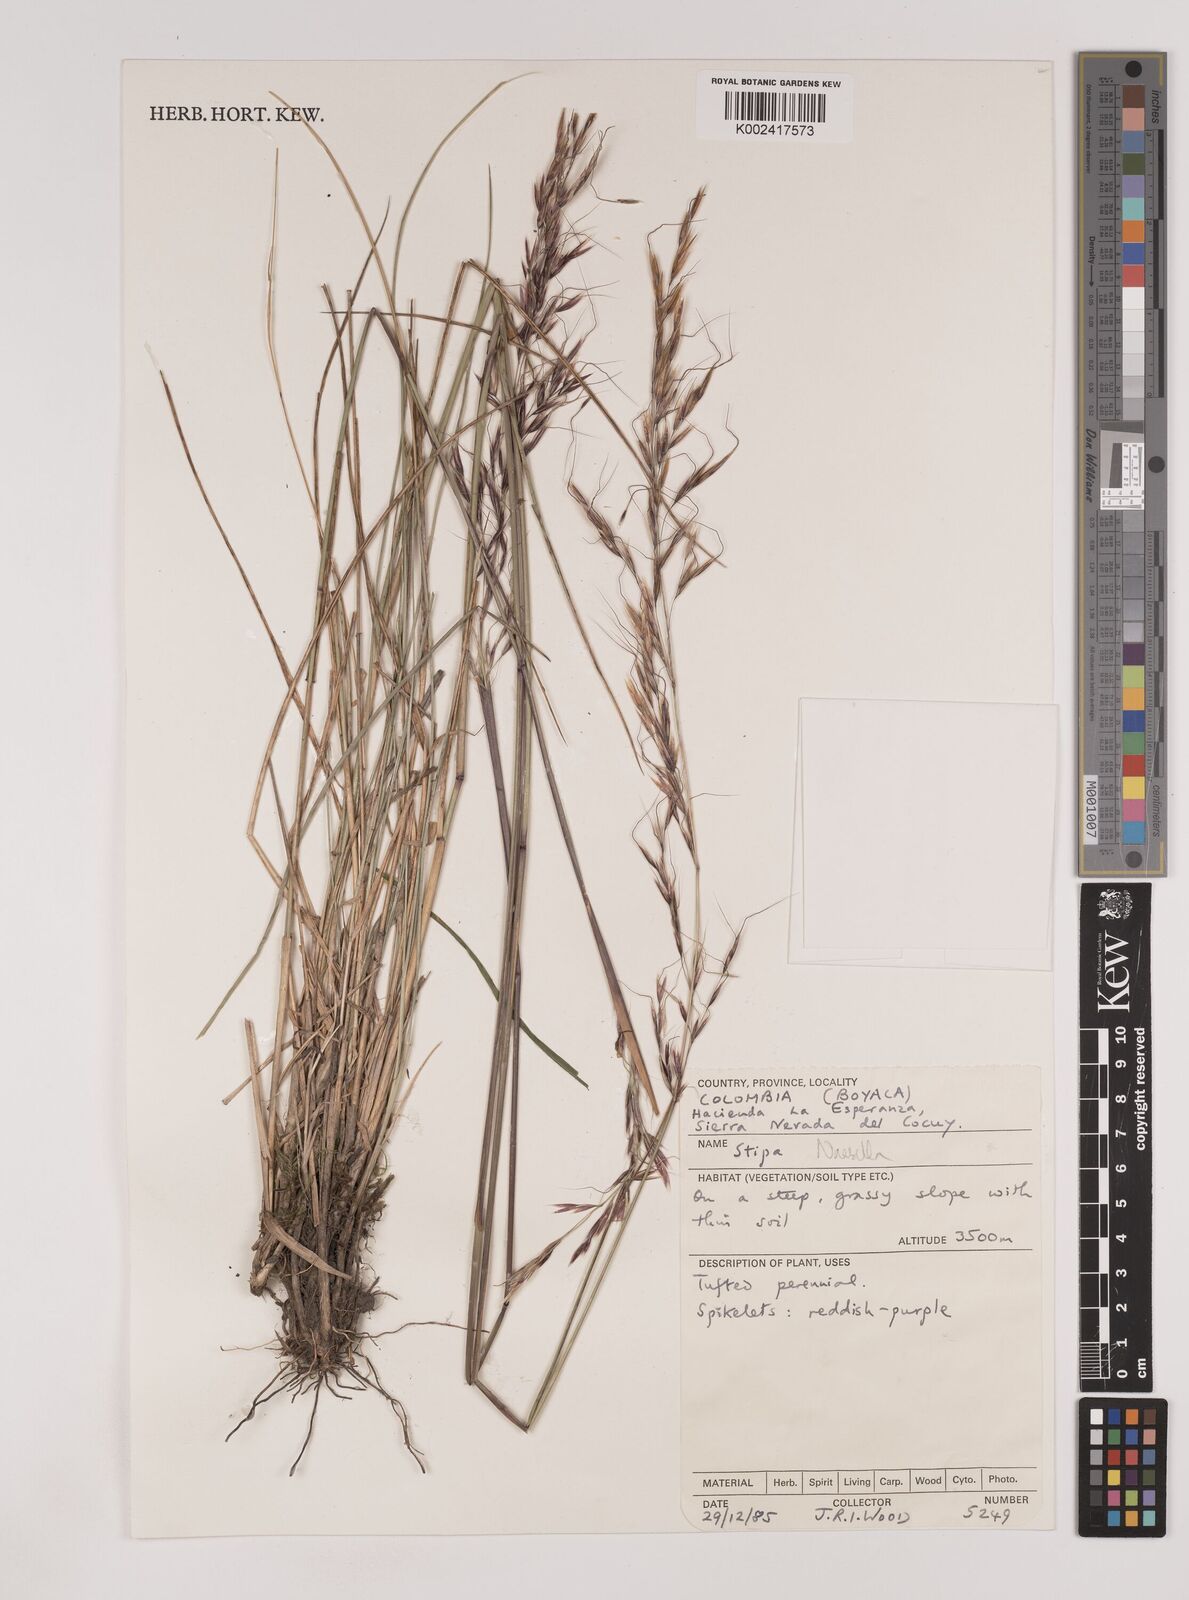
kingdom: Plantae
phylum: Tracheophyta
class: Liliopsida
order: Poales
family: Poaceae
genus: Nassella
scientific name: Nassella
